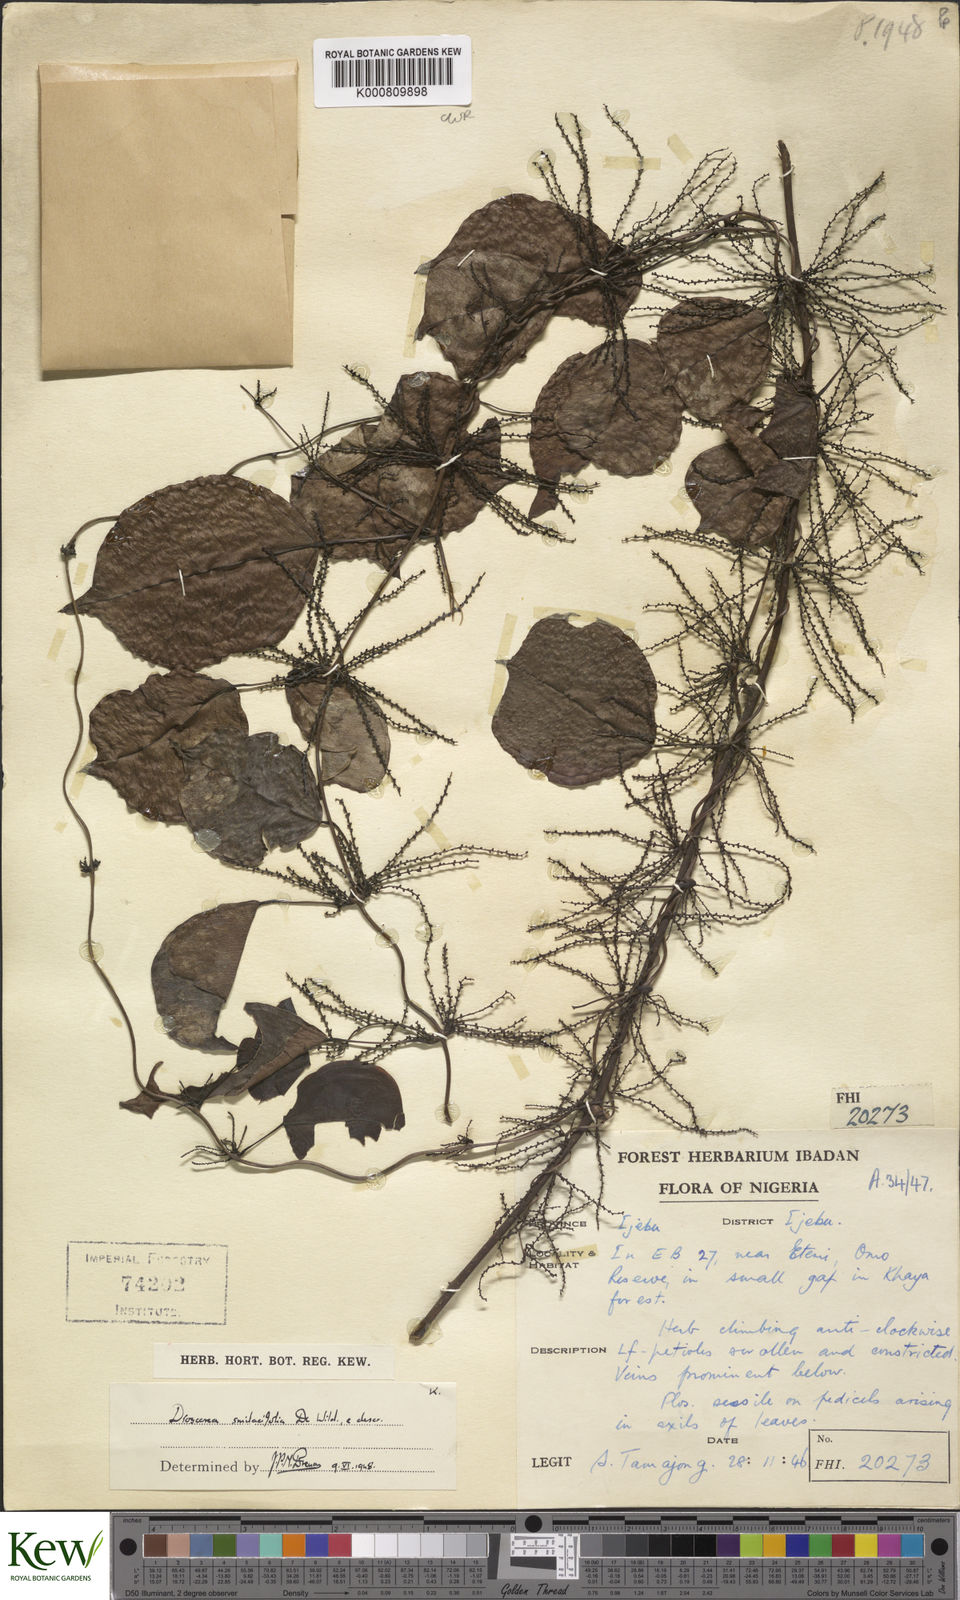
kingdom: Plantae
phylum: Tracheophyta
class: Liliopsida
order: Dioscoreales
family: Dioscoreaceae
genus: Dioscorea
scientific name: Dioscorea smilacifolia
